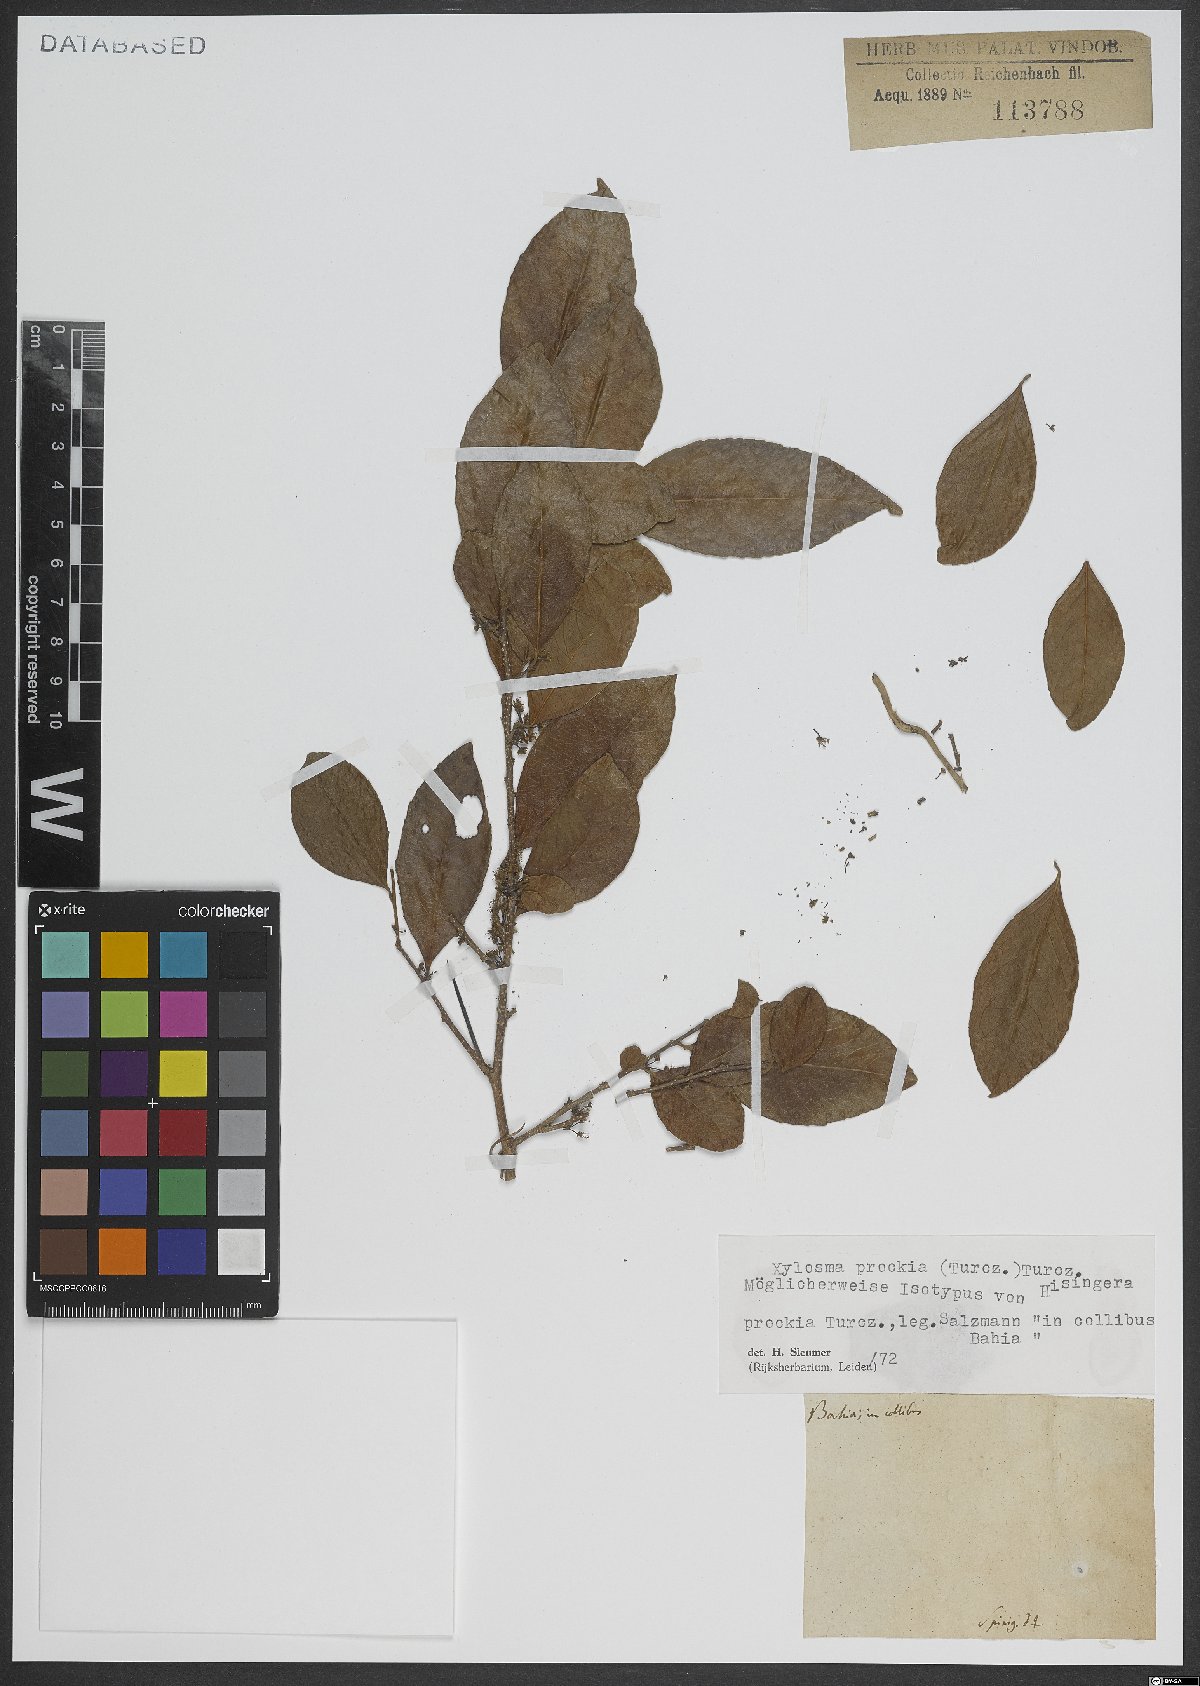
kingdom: Plantae
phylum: Tracheophyta
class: Magnoliopsida
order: Malpighiales
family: Salicaceae
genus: Xylosma
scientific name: Xylosma prockia
